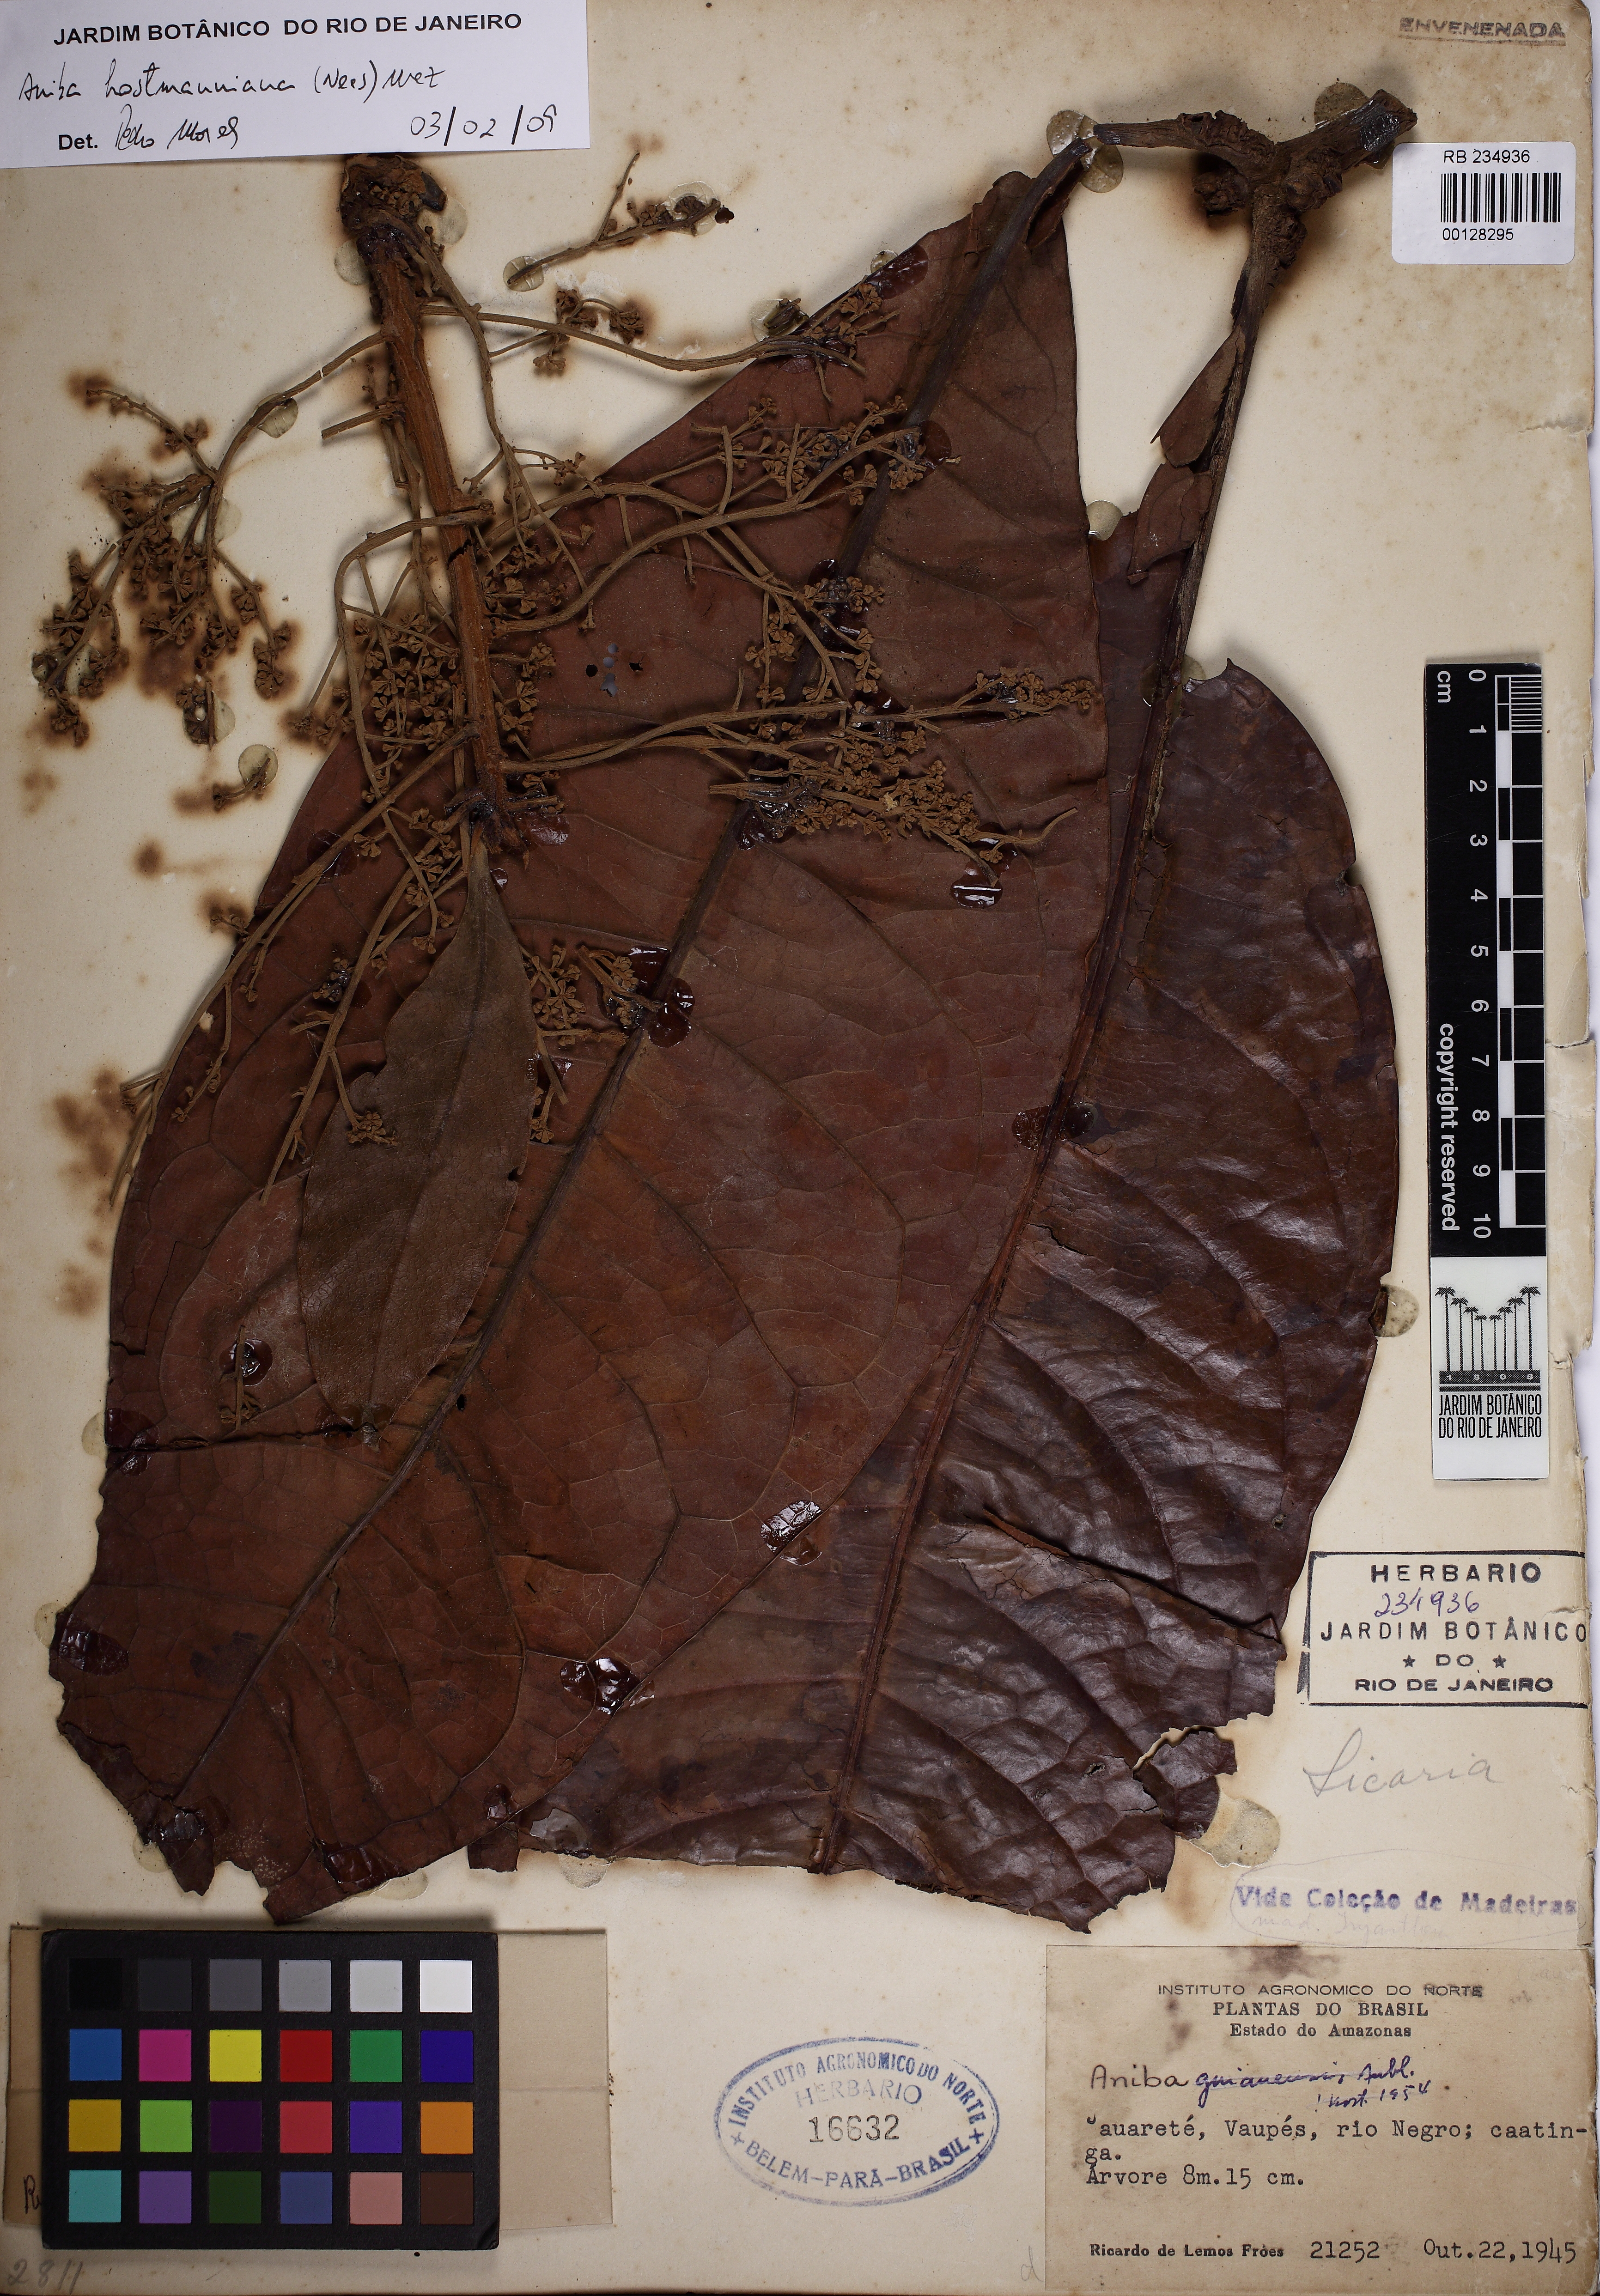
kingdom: Plantae
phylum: Tracheophyta
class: Magnoliopsida
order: Laurales
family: Lauraceae
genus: Aniba
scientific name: Aniba hostmanniana
